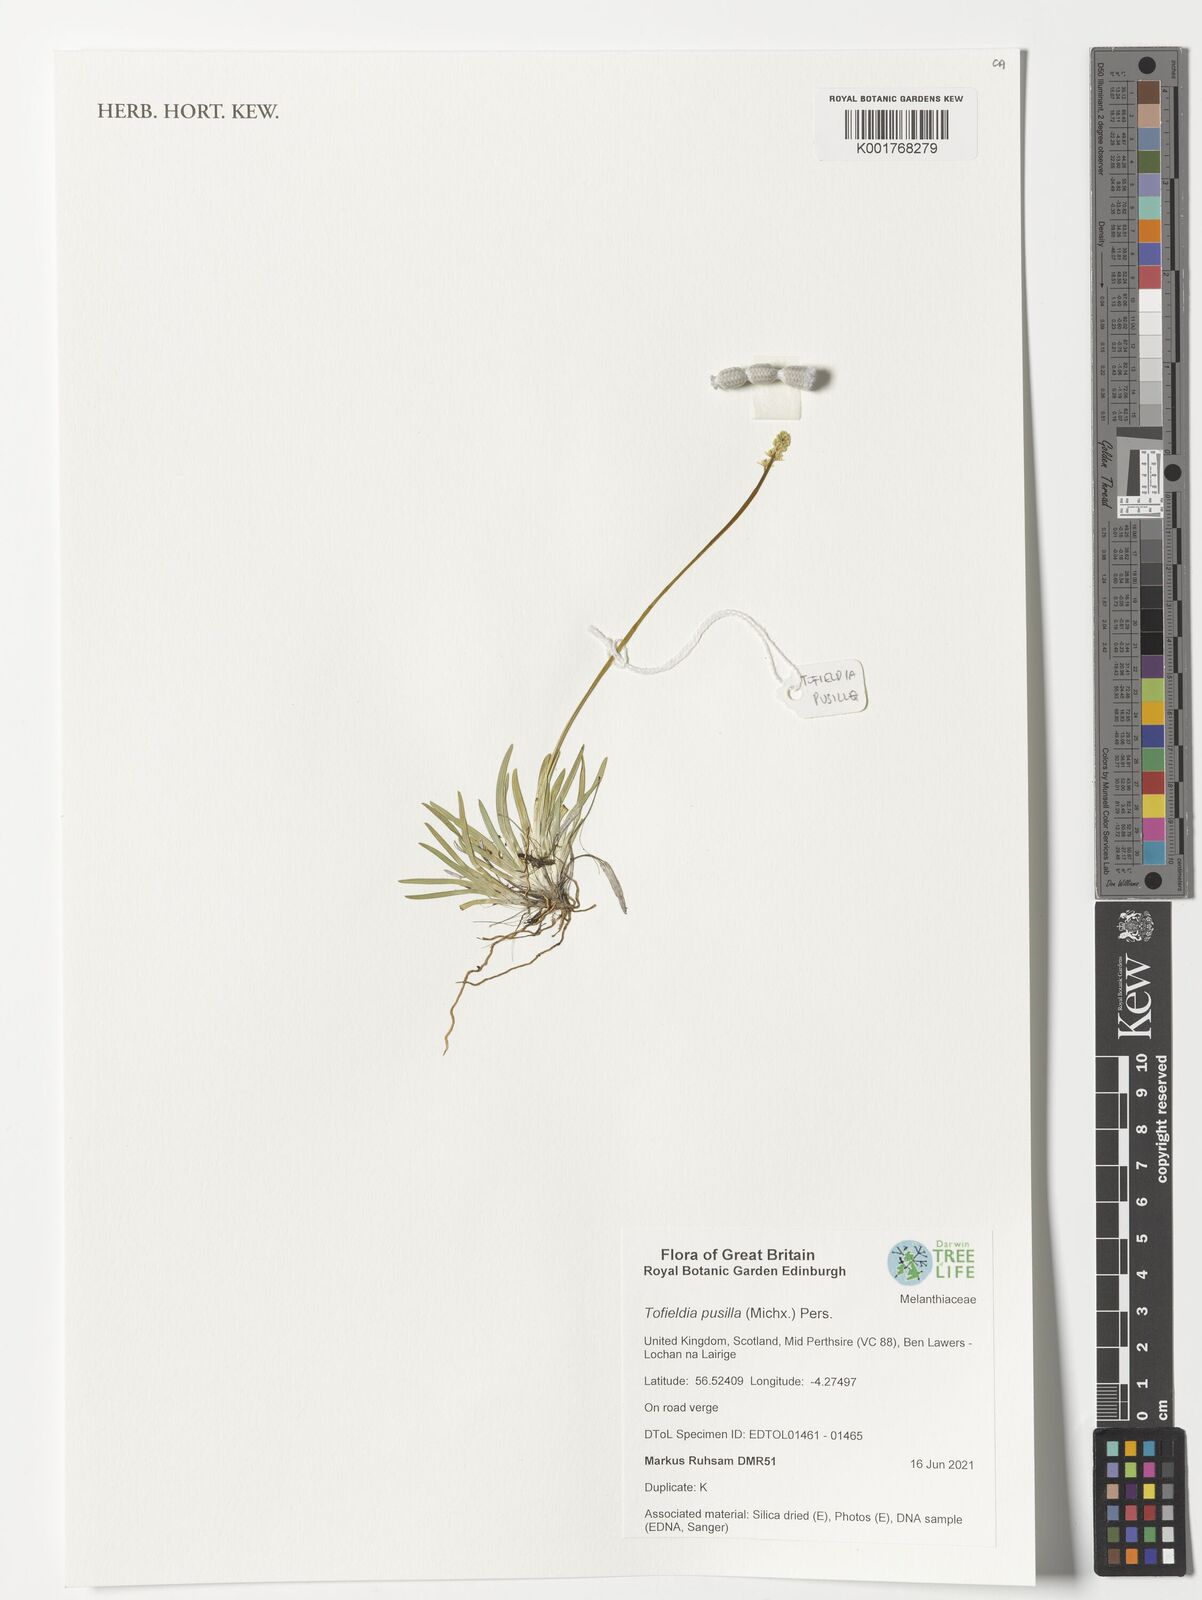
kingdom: Plantae
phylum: Tracheophyta
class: Liliopsida
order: Alismatales
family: Tofieldiaceae
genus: Tofieldia
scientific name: Tofieldia pusilla
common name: Scottish false asphodel
